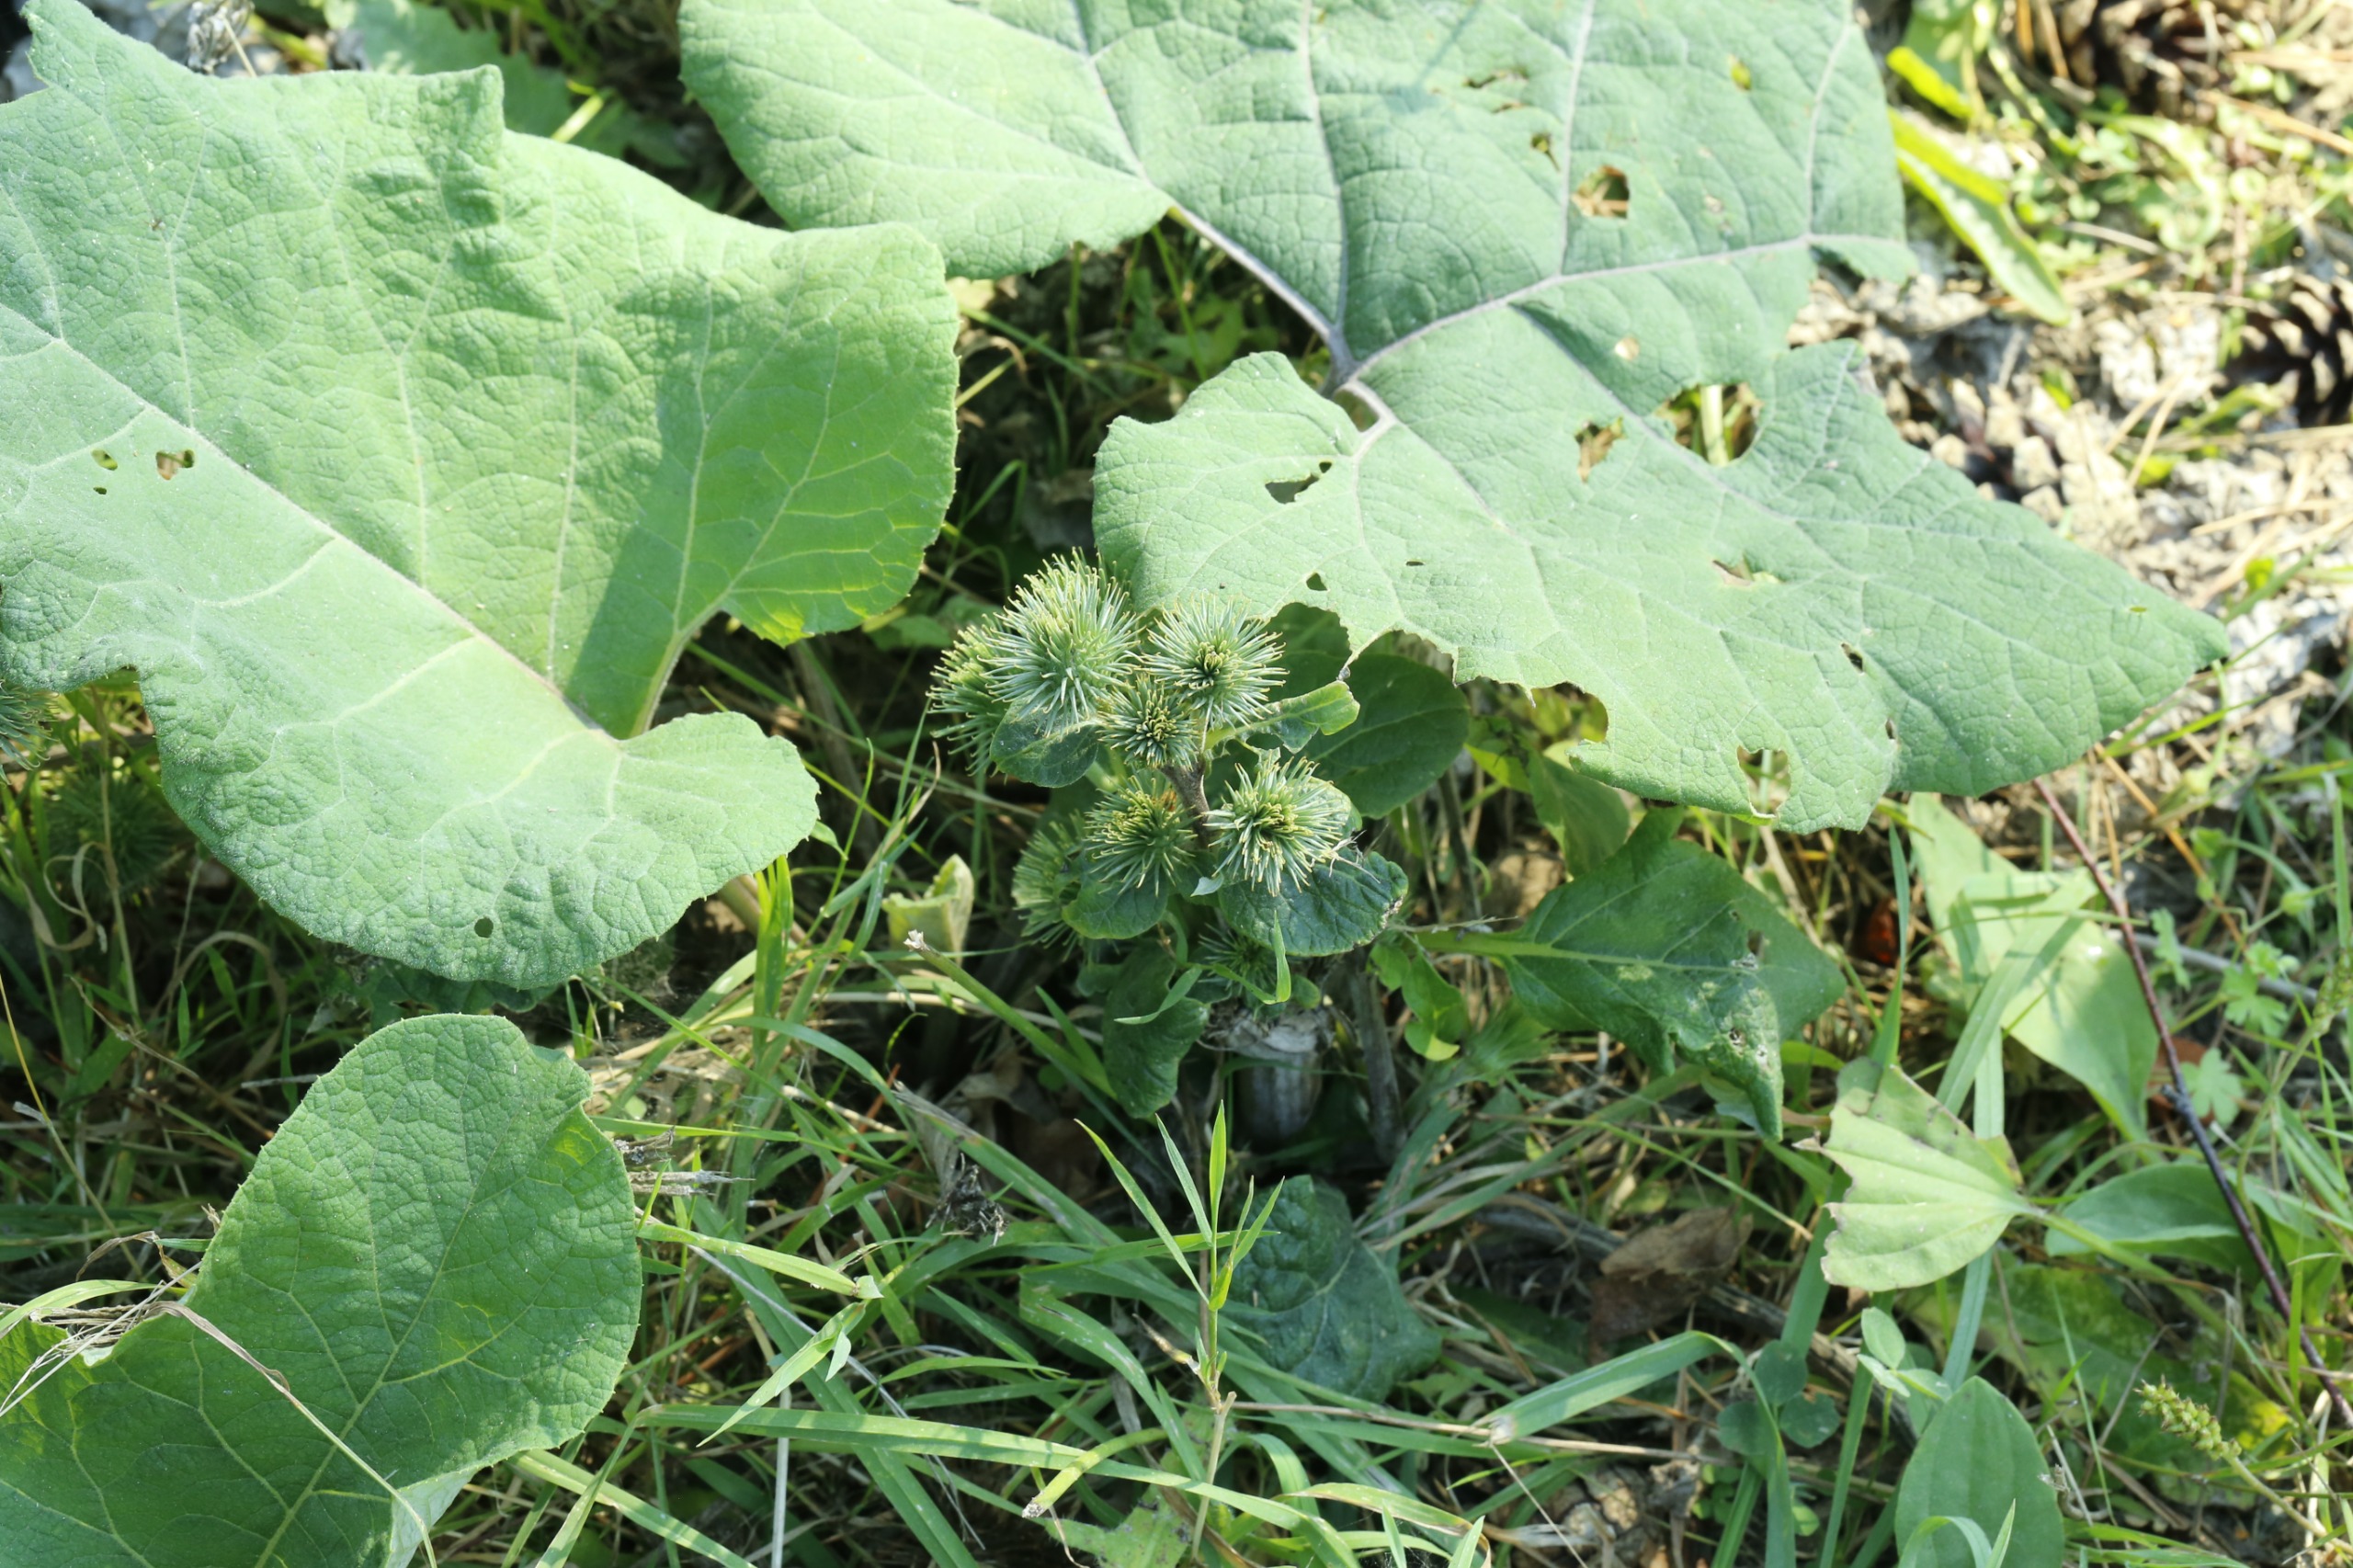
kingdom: Plantae
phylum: Tracheophyta
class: Magnoliopsida
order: Asterales
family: Asteraceae
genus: Arctium
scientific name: Arctium lappa
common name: Glat burre
